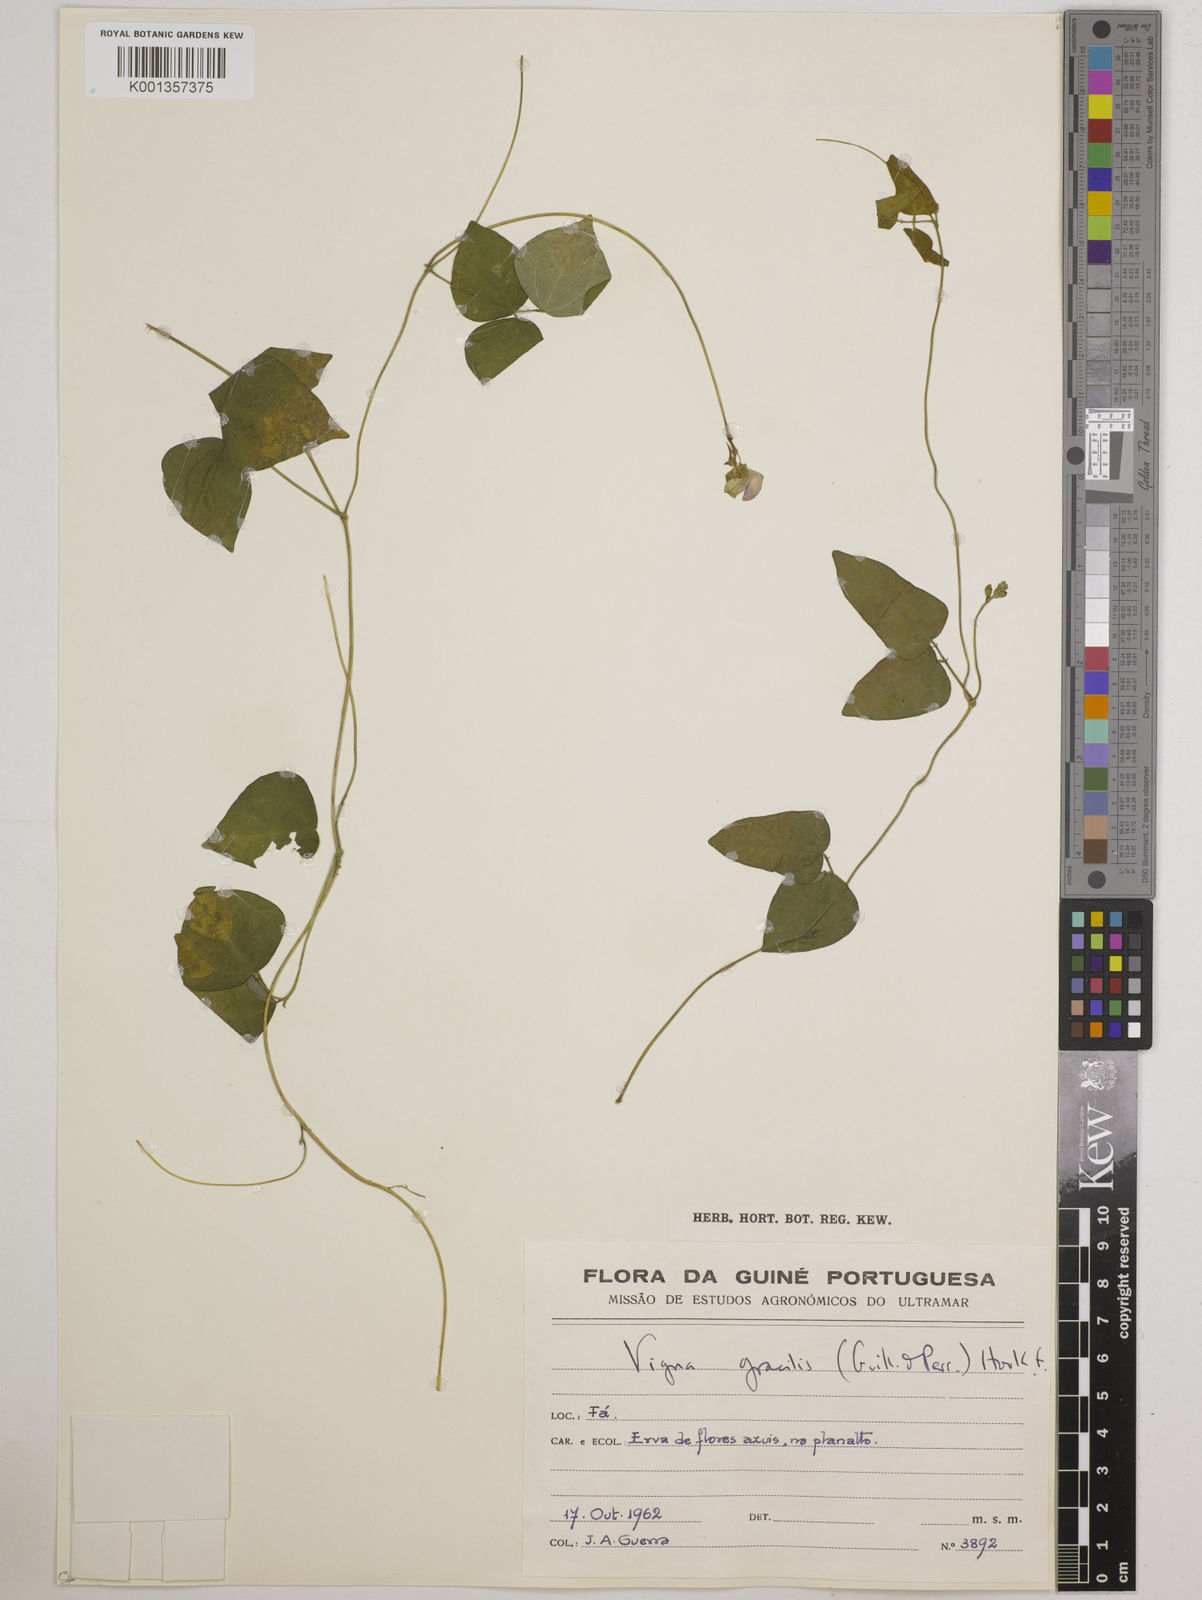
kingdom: Plantae
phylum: Tracheophyta
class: Magnoliopsida
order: Fabales
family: Fabaceae
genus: Vigna
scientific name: Vigna gracilis
